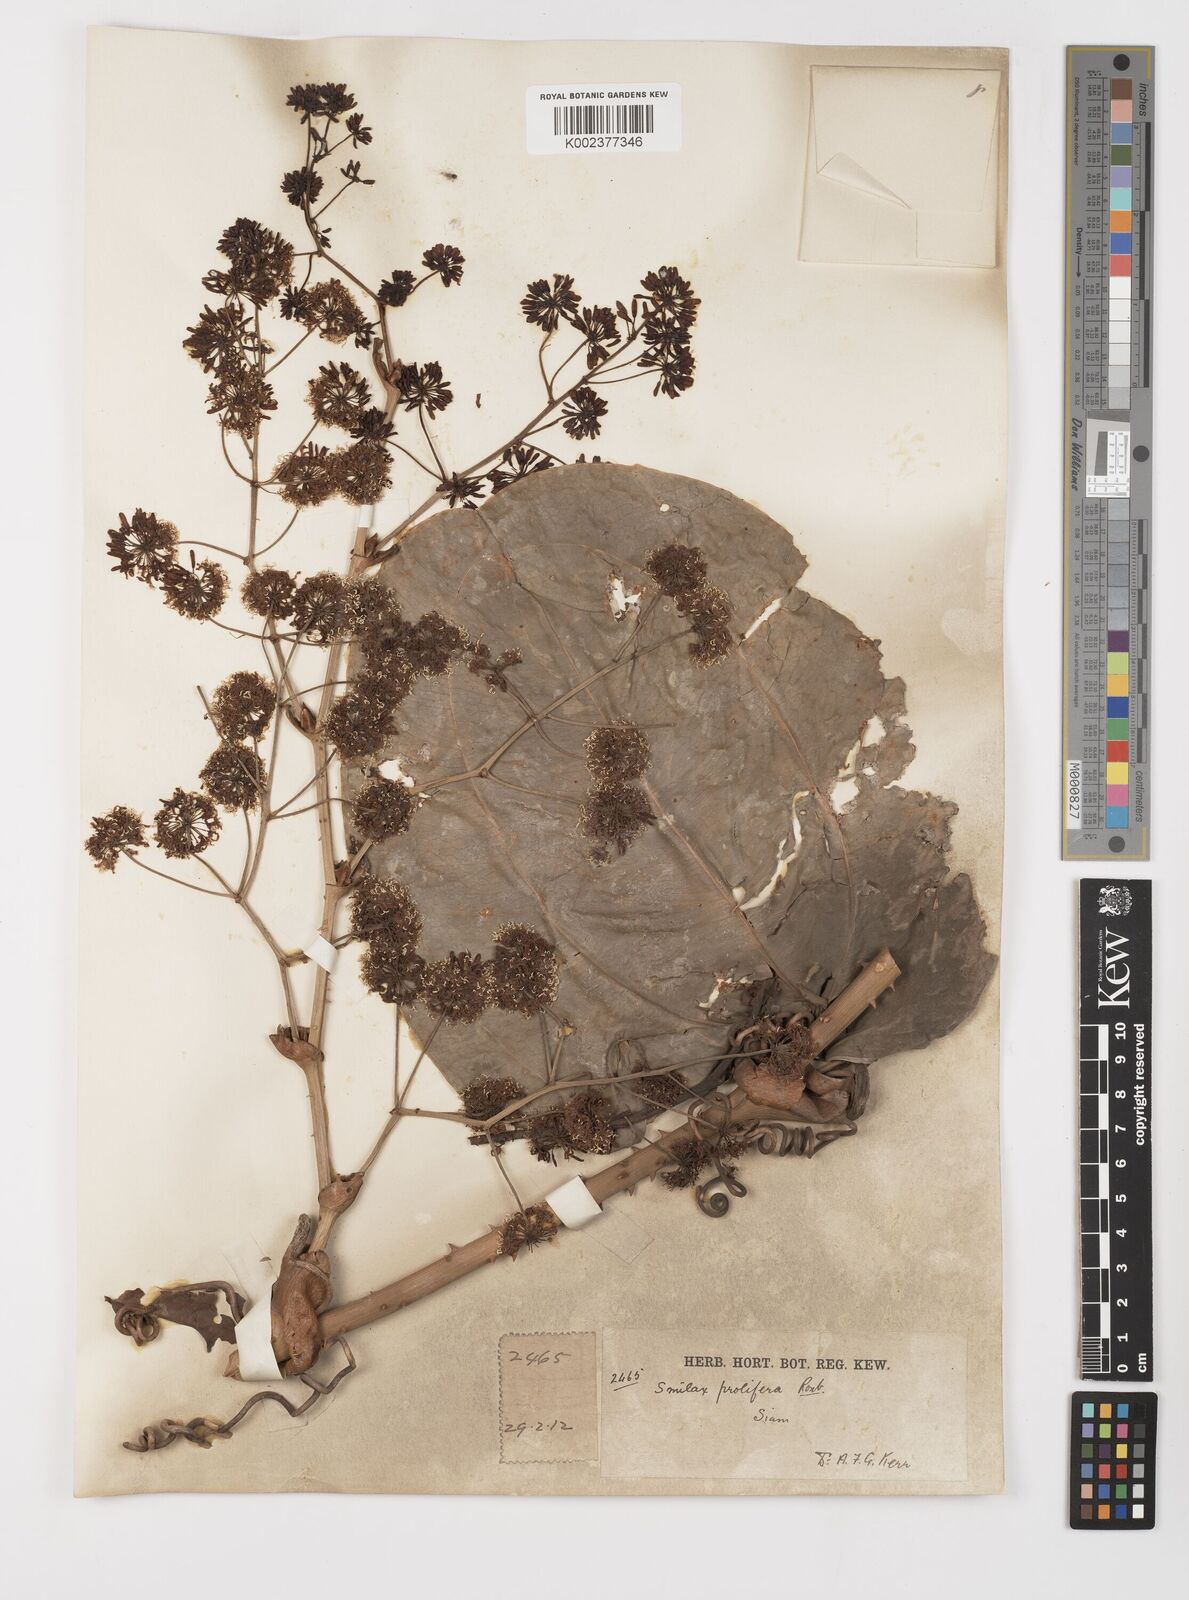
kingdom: Plantae
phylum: Tracheophyta
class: Liliopsida
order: Liliales
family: Smilacaceae
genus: Smilax
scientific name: Smilax prolifera
